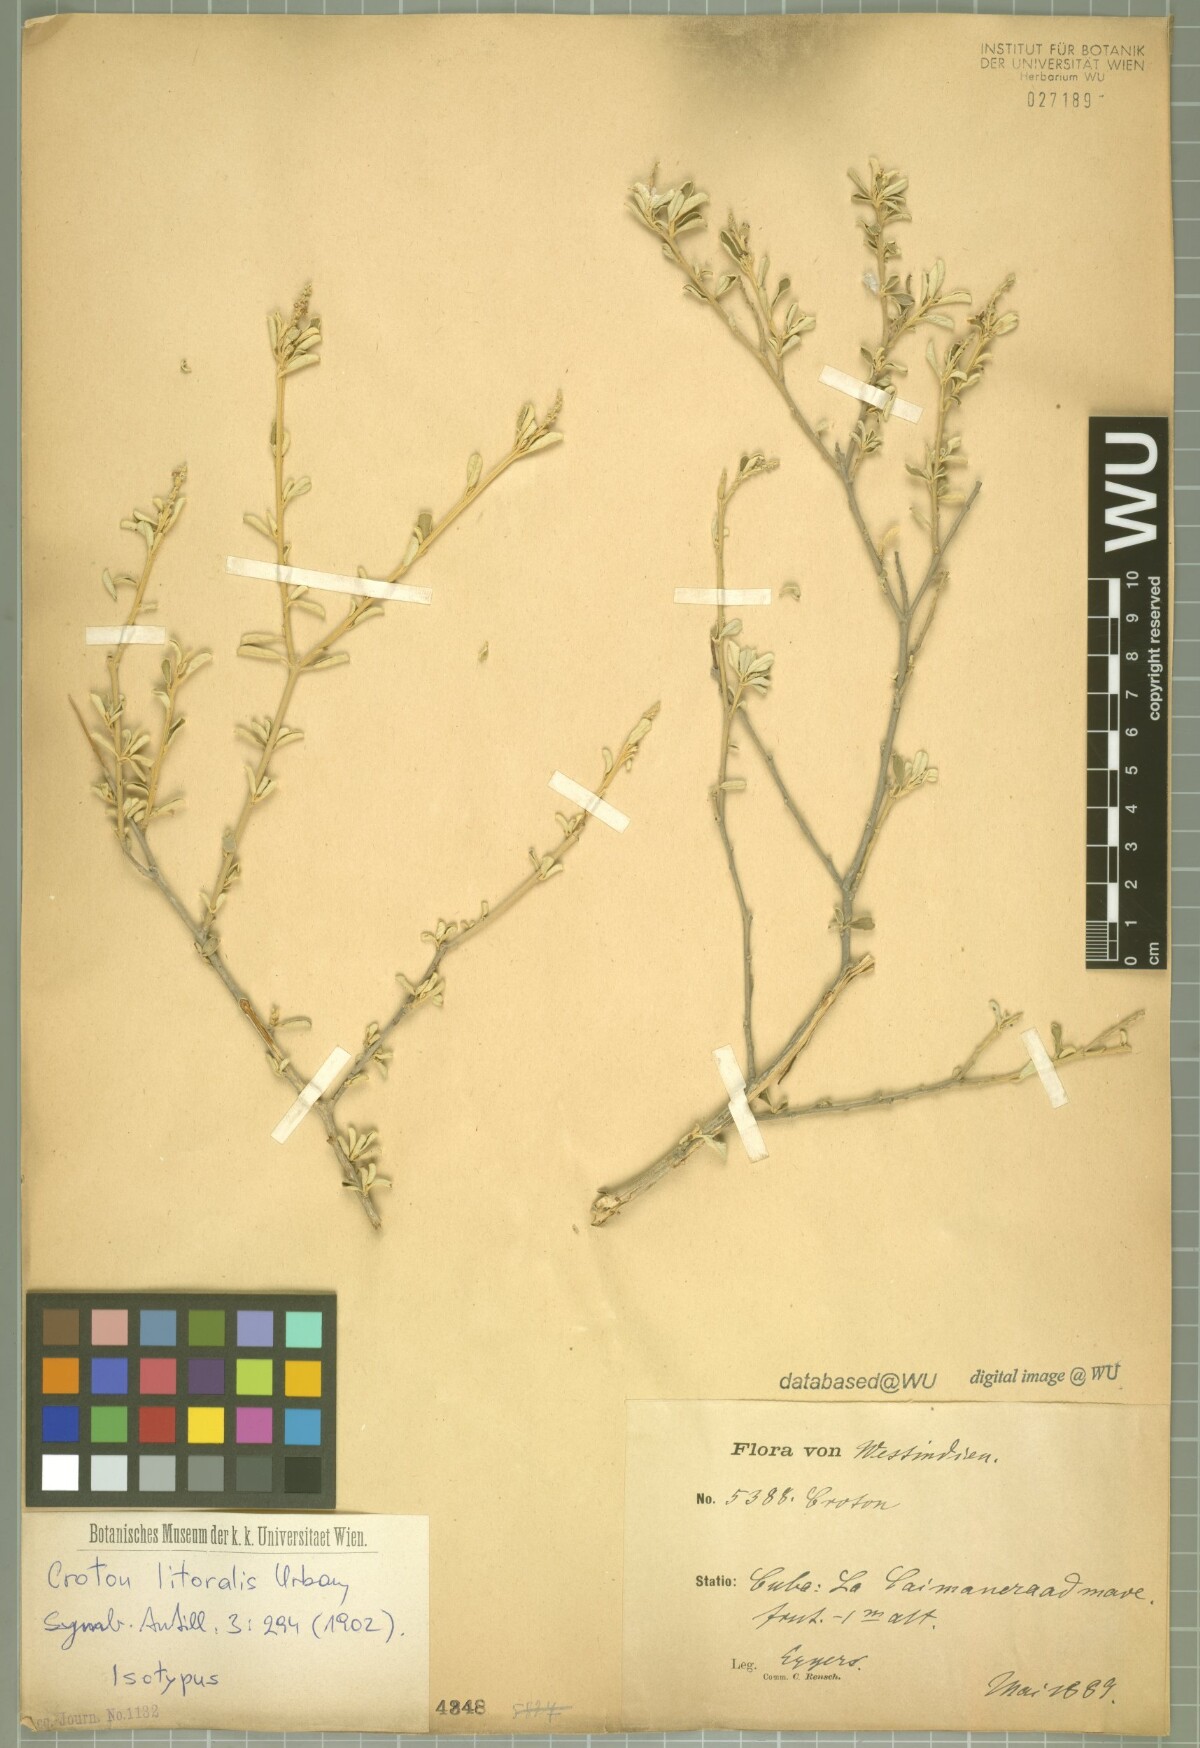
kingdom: Plantae
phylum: Tracheophyta
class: Magnoliopsida
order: Malpighiales
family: Euphorbiaceae
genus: Croton
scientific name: Croton stenophyllus
